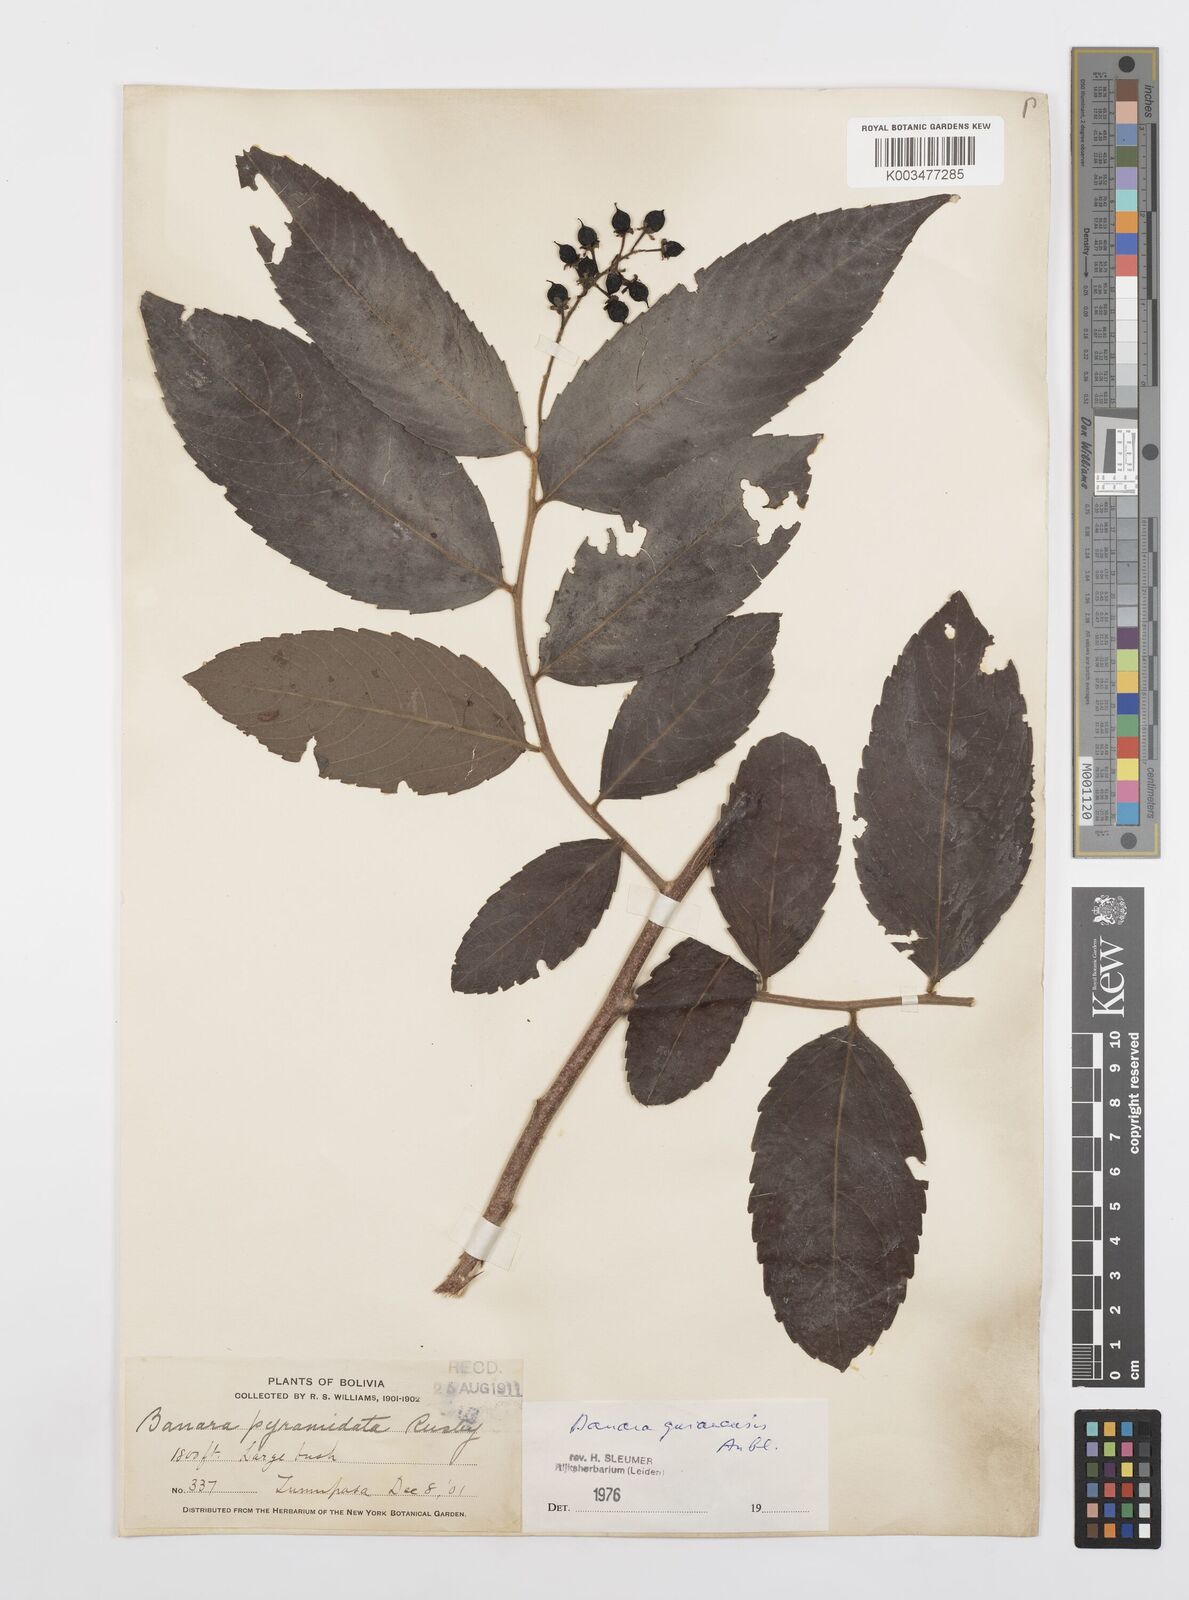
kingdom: Plantae
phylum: Tracheophyta
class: Magnoliopsida
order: Malpighiales
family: Salicaceae
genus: Banara
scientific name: Banara guianensis
